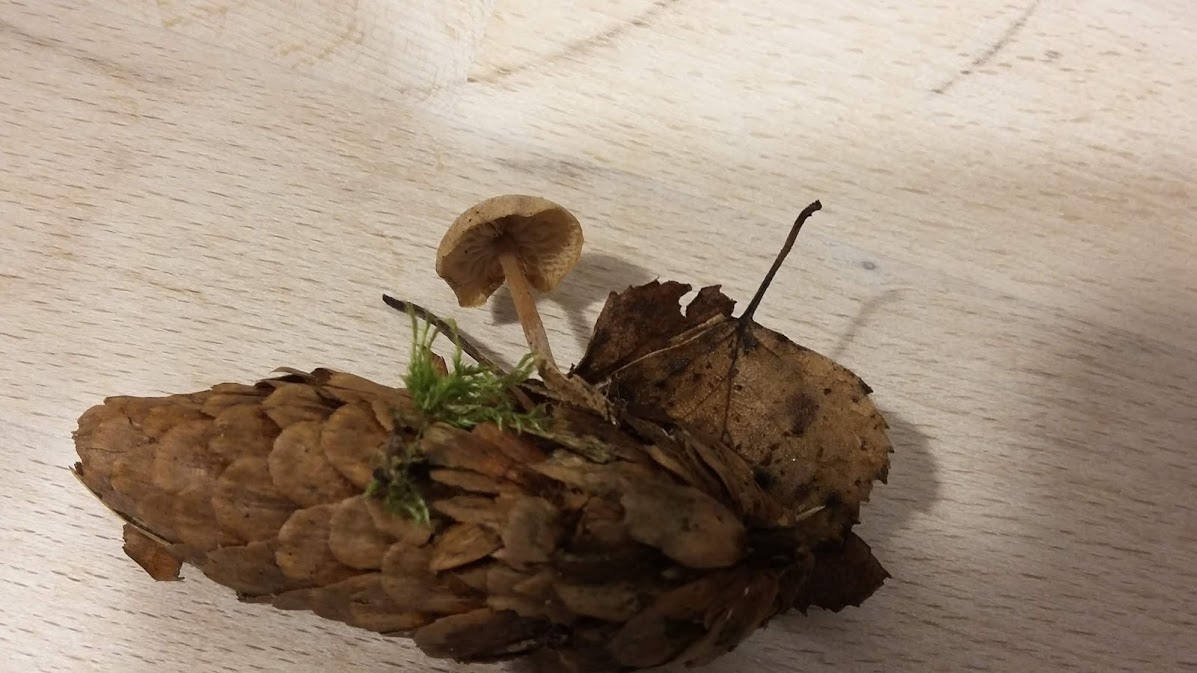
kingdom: Fungi
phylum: Basidiomycota
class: Agaricomycetes
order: Agaricales
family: Marasmiaceae
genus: Baeospora
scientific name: Baeospora myosura
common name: koglebruskhat
